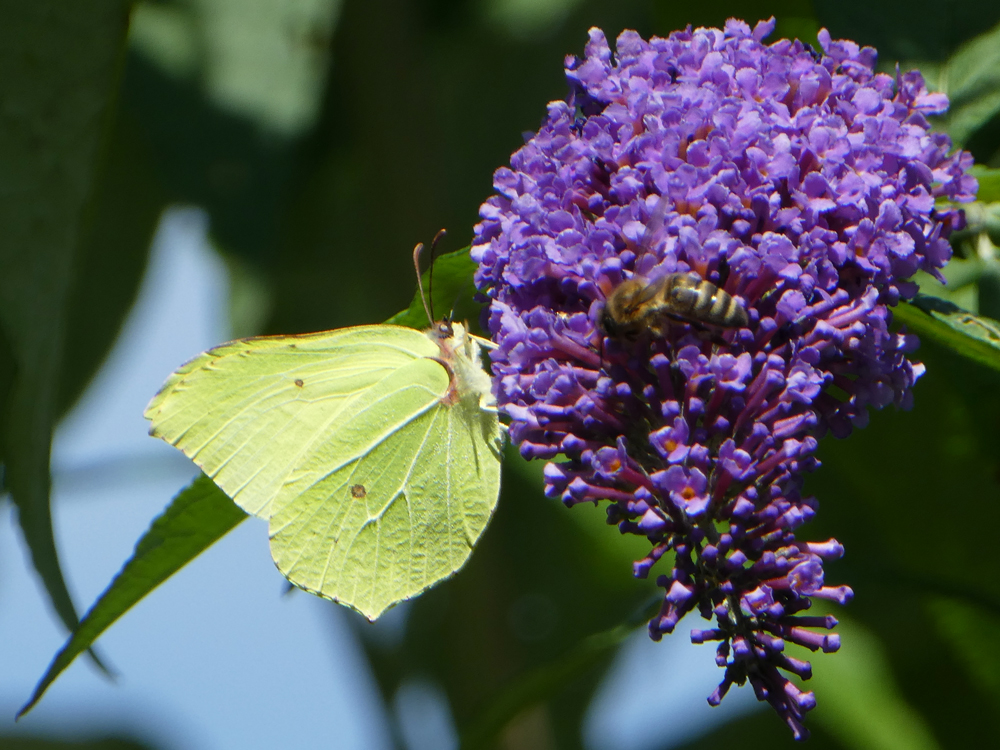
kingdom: Animalia
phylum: Arthropoda
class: Insecta
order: Lepidoptera
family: Pieridae
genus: Gonepteryx
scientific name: Gonepteryx rhamni
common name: Brimstone
